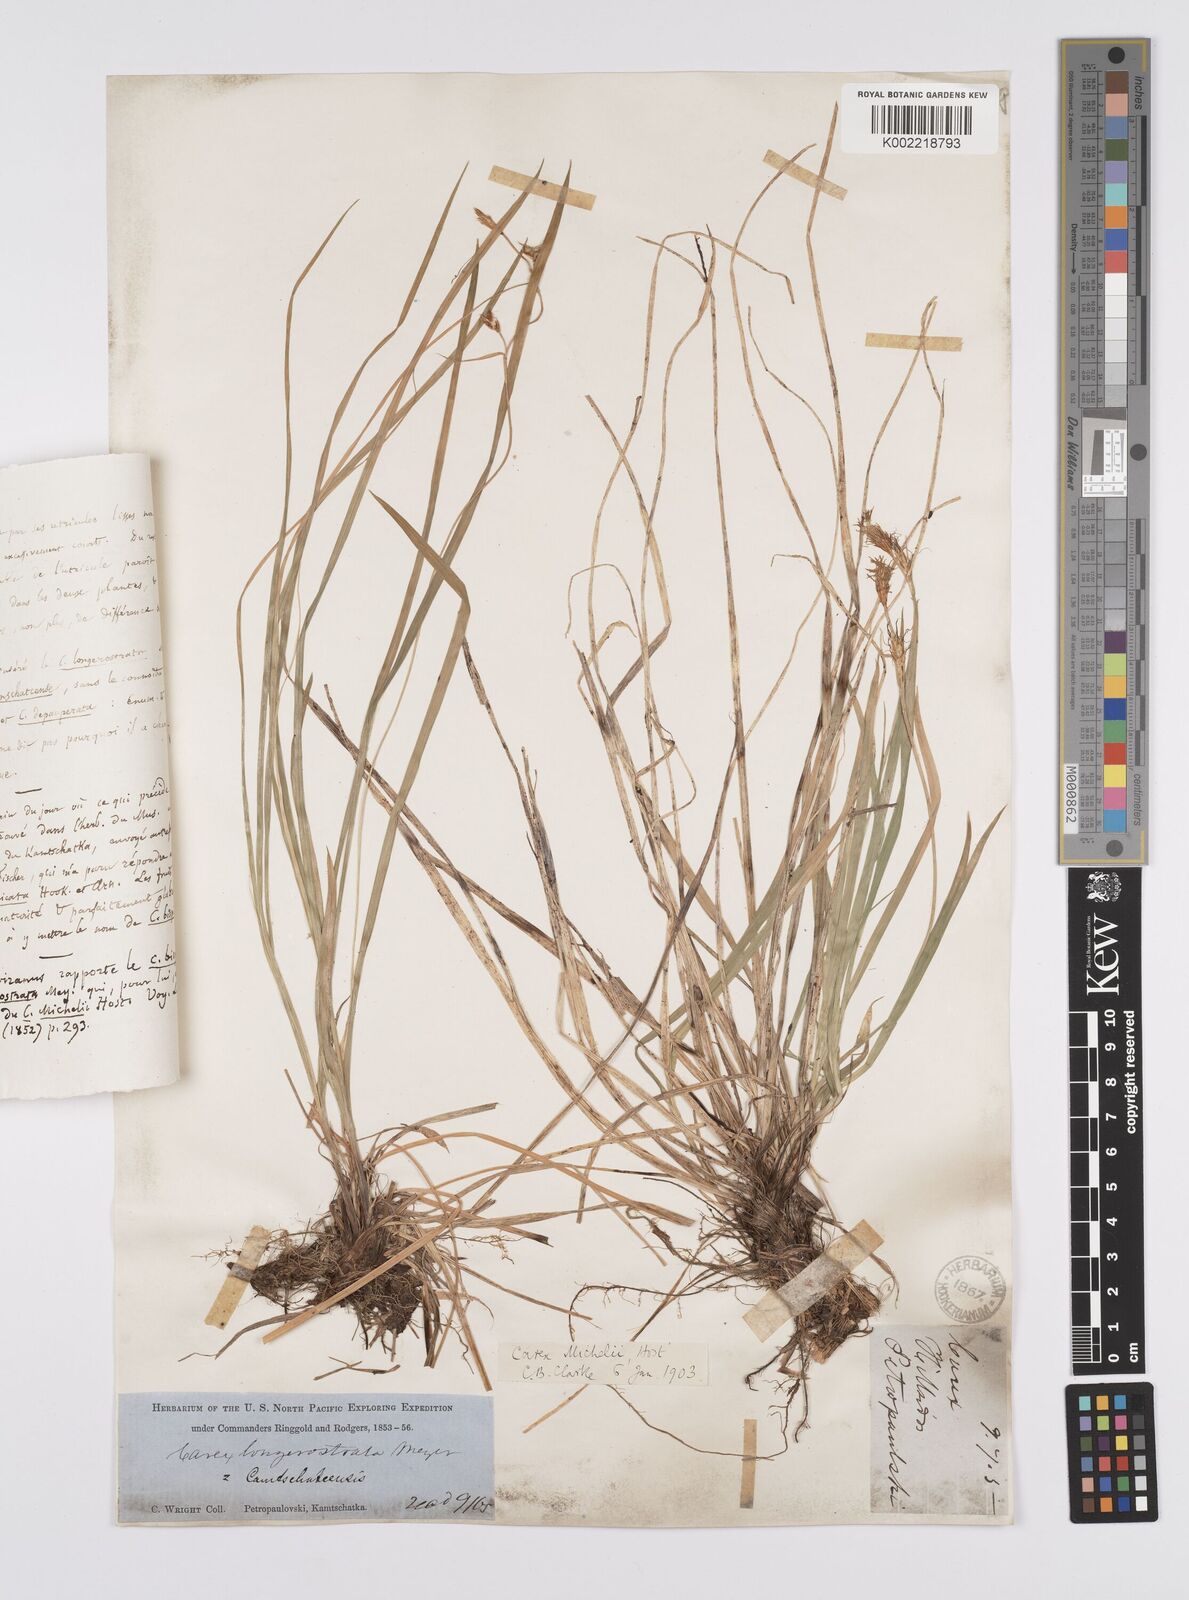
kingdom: Plantae
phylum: Tracheophyta
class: Liliopsida
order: Poales
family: Cyperaceae
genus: Carex
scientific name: Carex longerostrata
